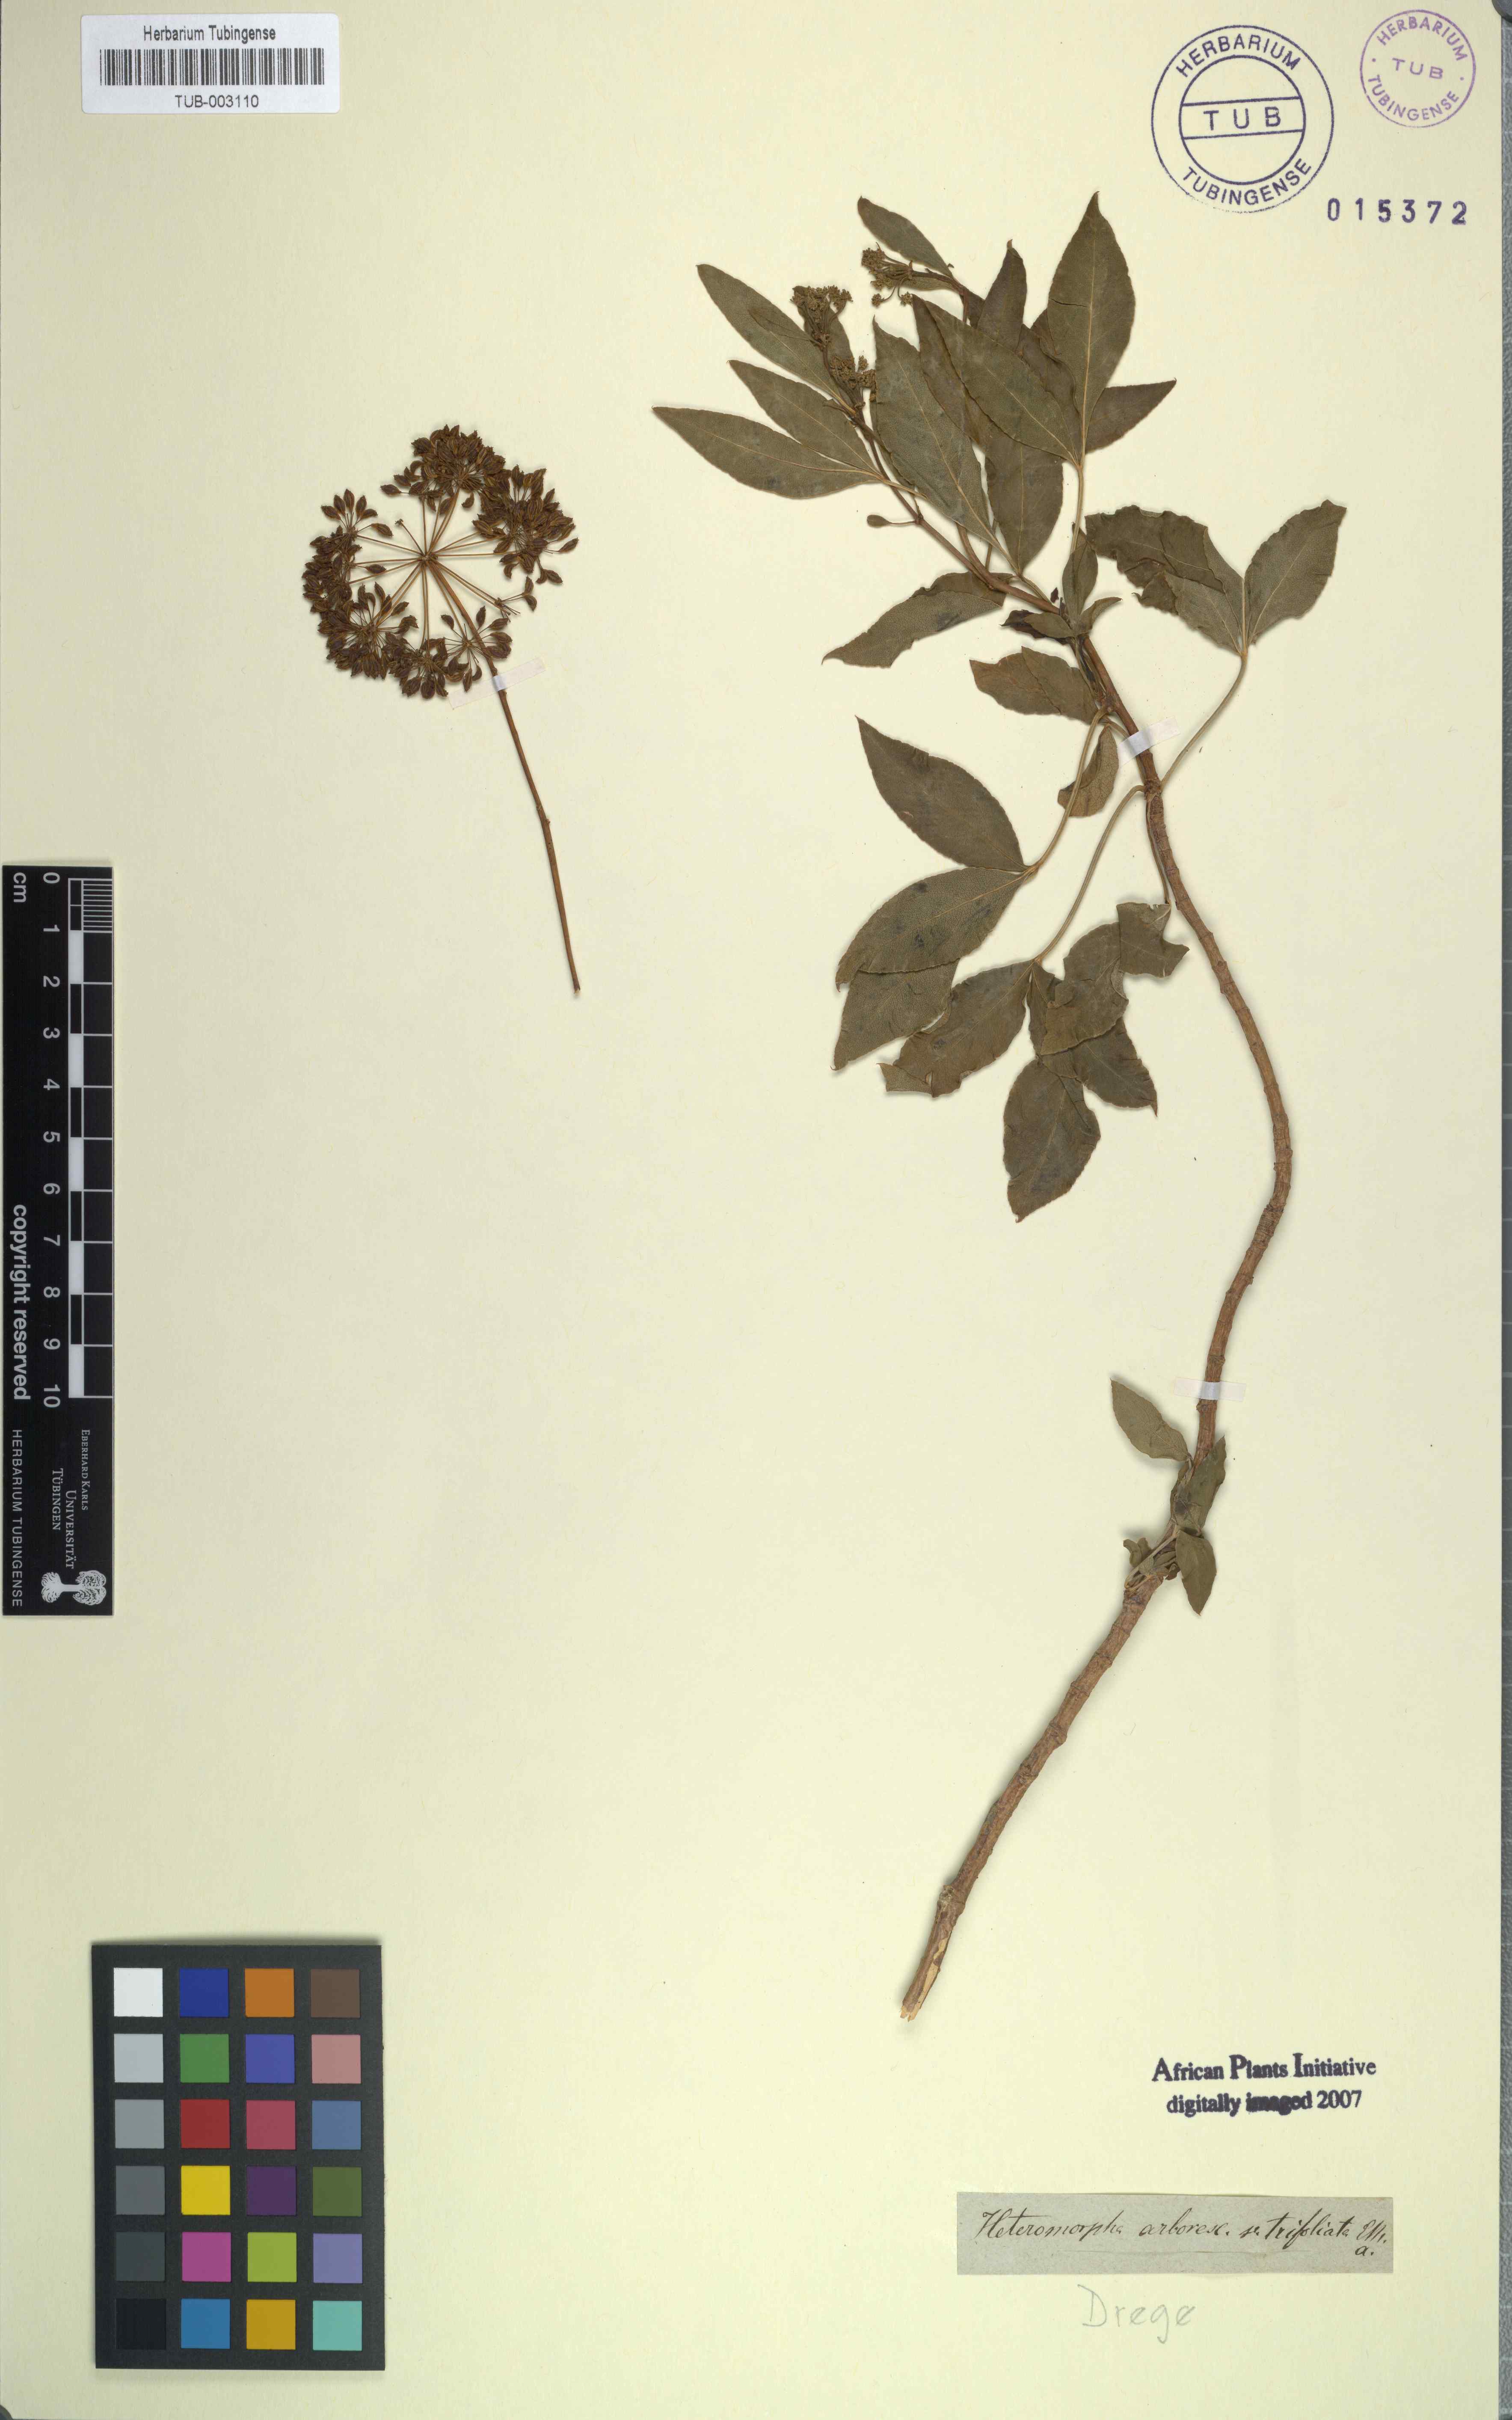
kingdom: Plantae
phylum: Tracheophyta
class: Magnoliopsida
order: Apiales
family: Apiaceae
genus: Heteromorpha
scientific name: Heteromorpha arborescens
